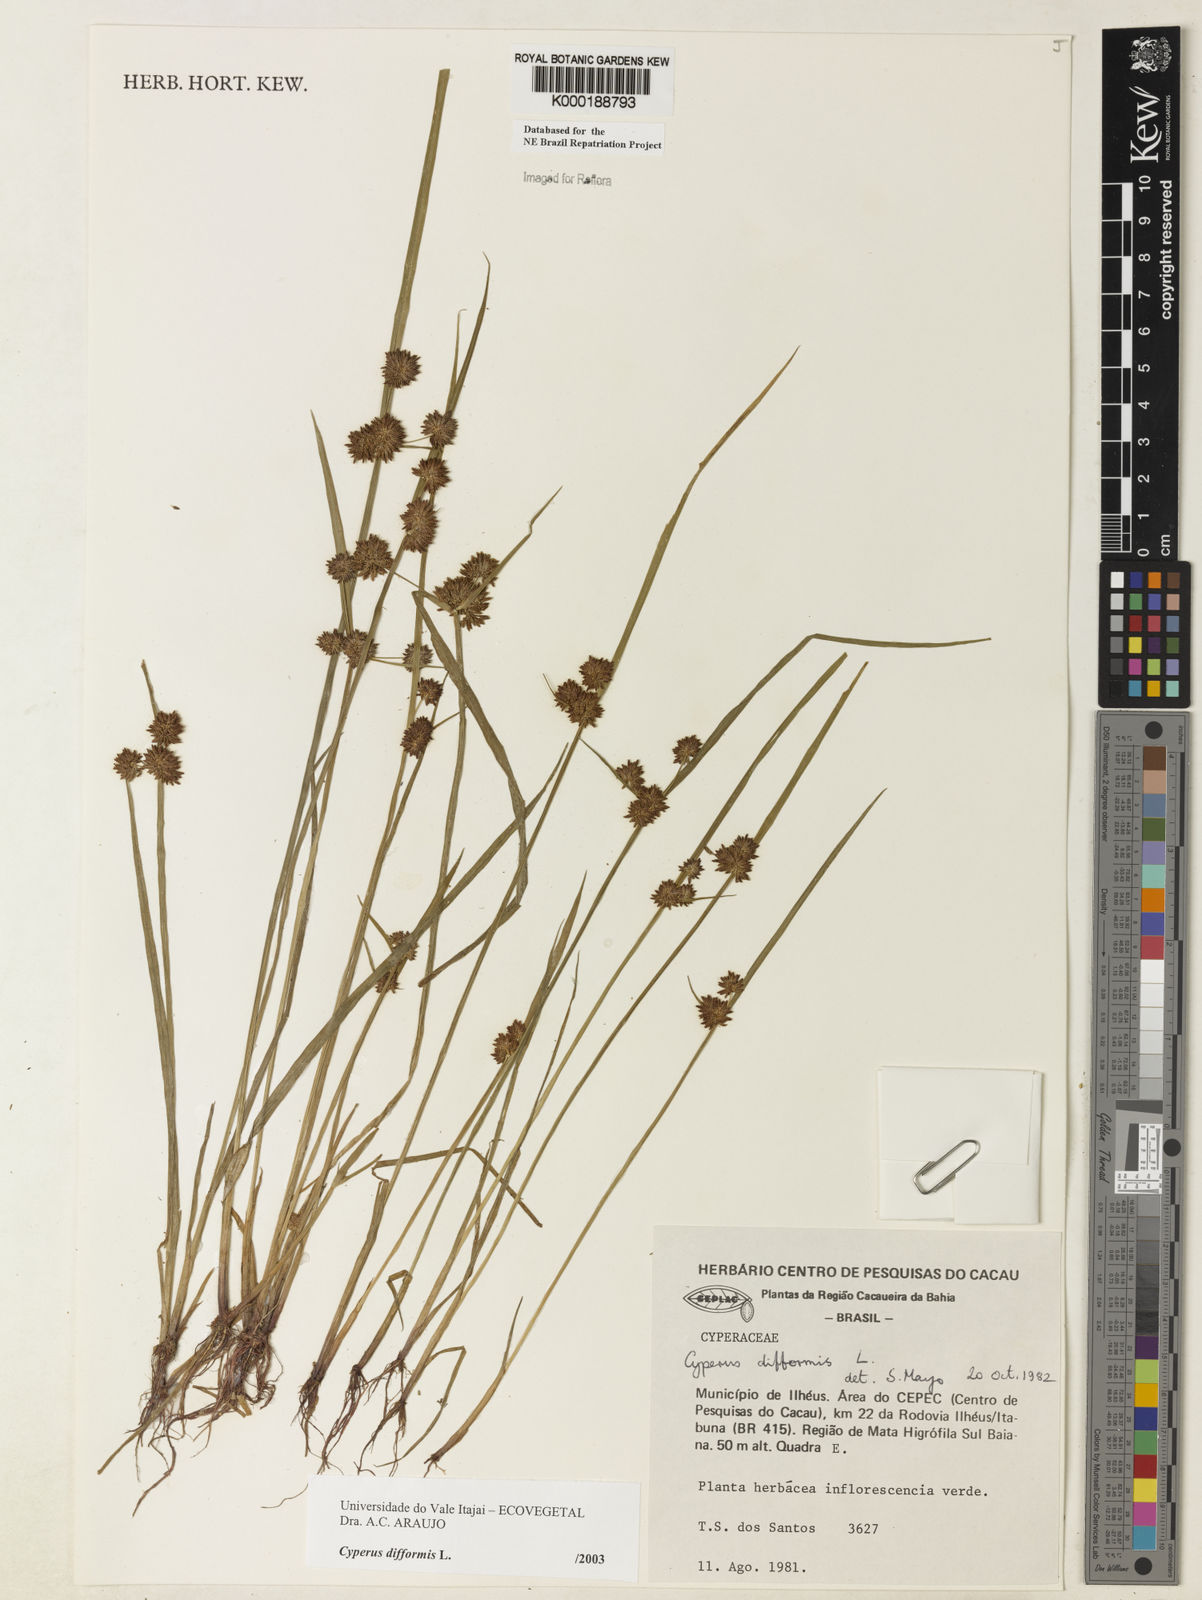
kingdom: Plantae
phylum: Tracheophyta
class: Liliopsida
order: Poales
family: Cyperaceae
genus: Cyperus
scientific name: Cyperus difformis
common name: Variable flatsedge
